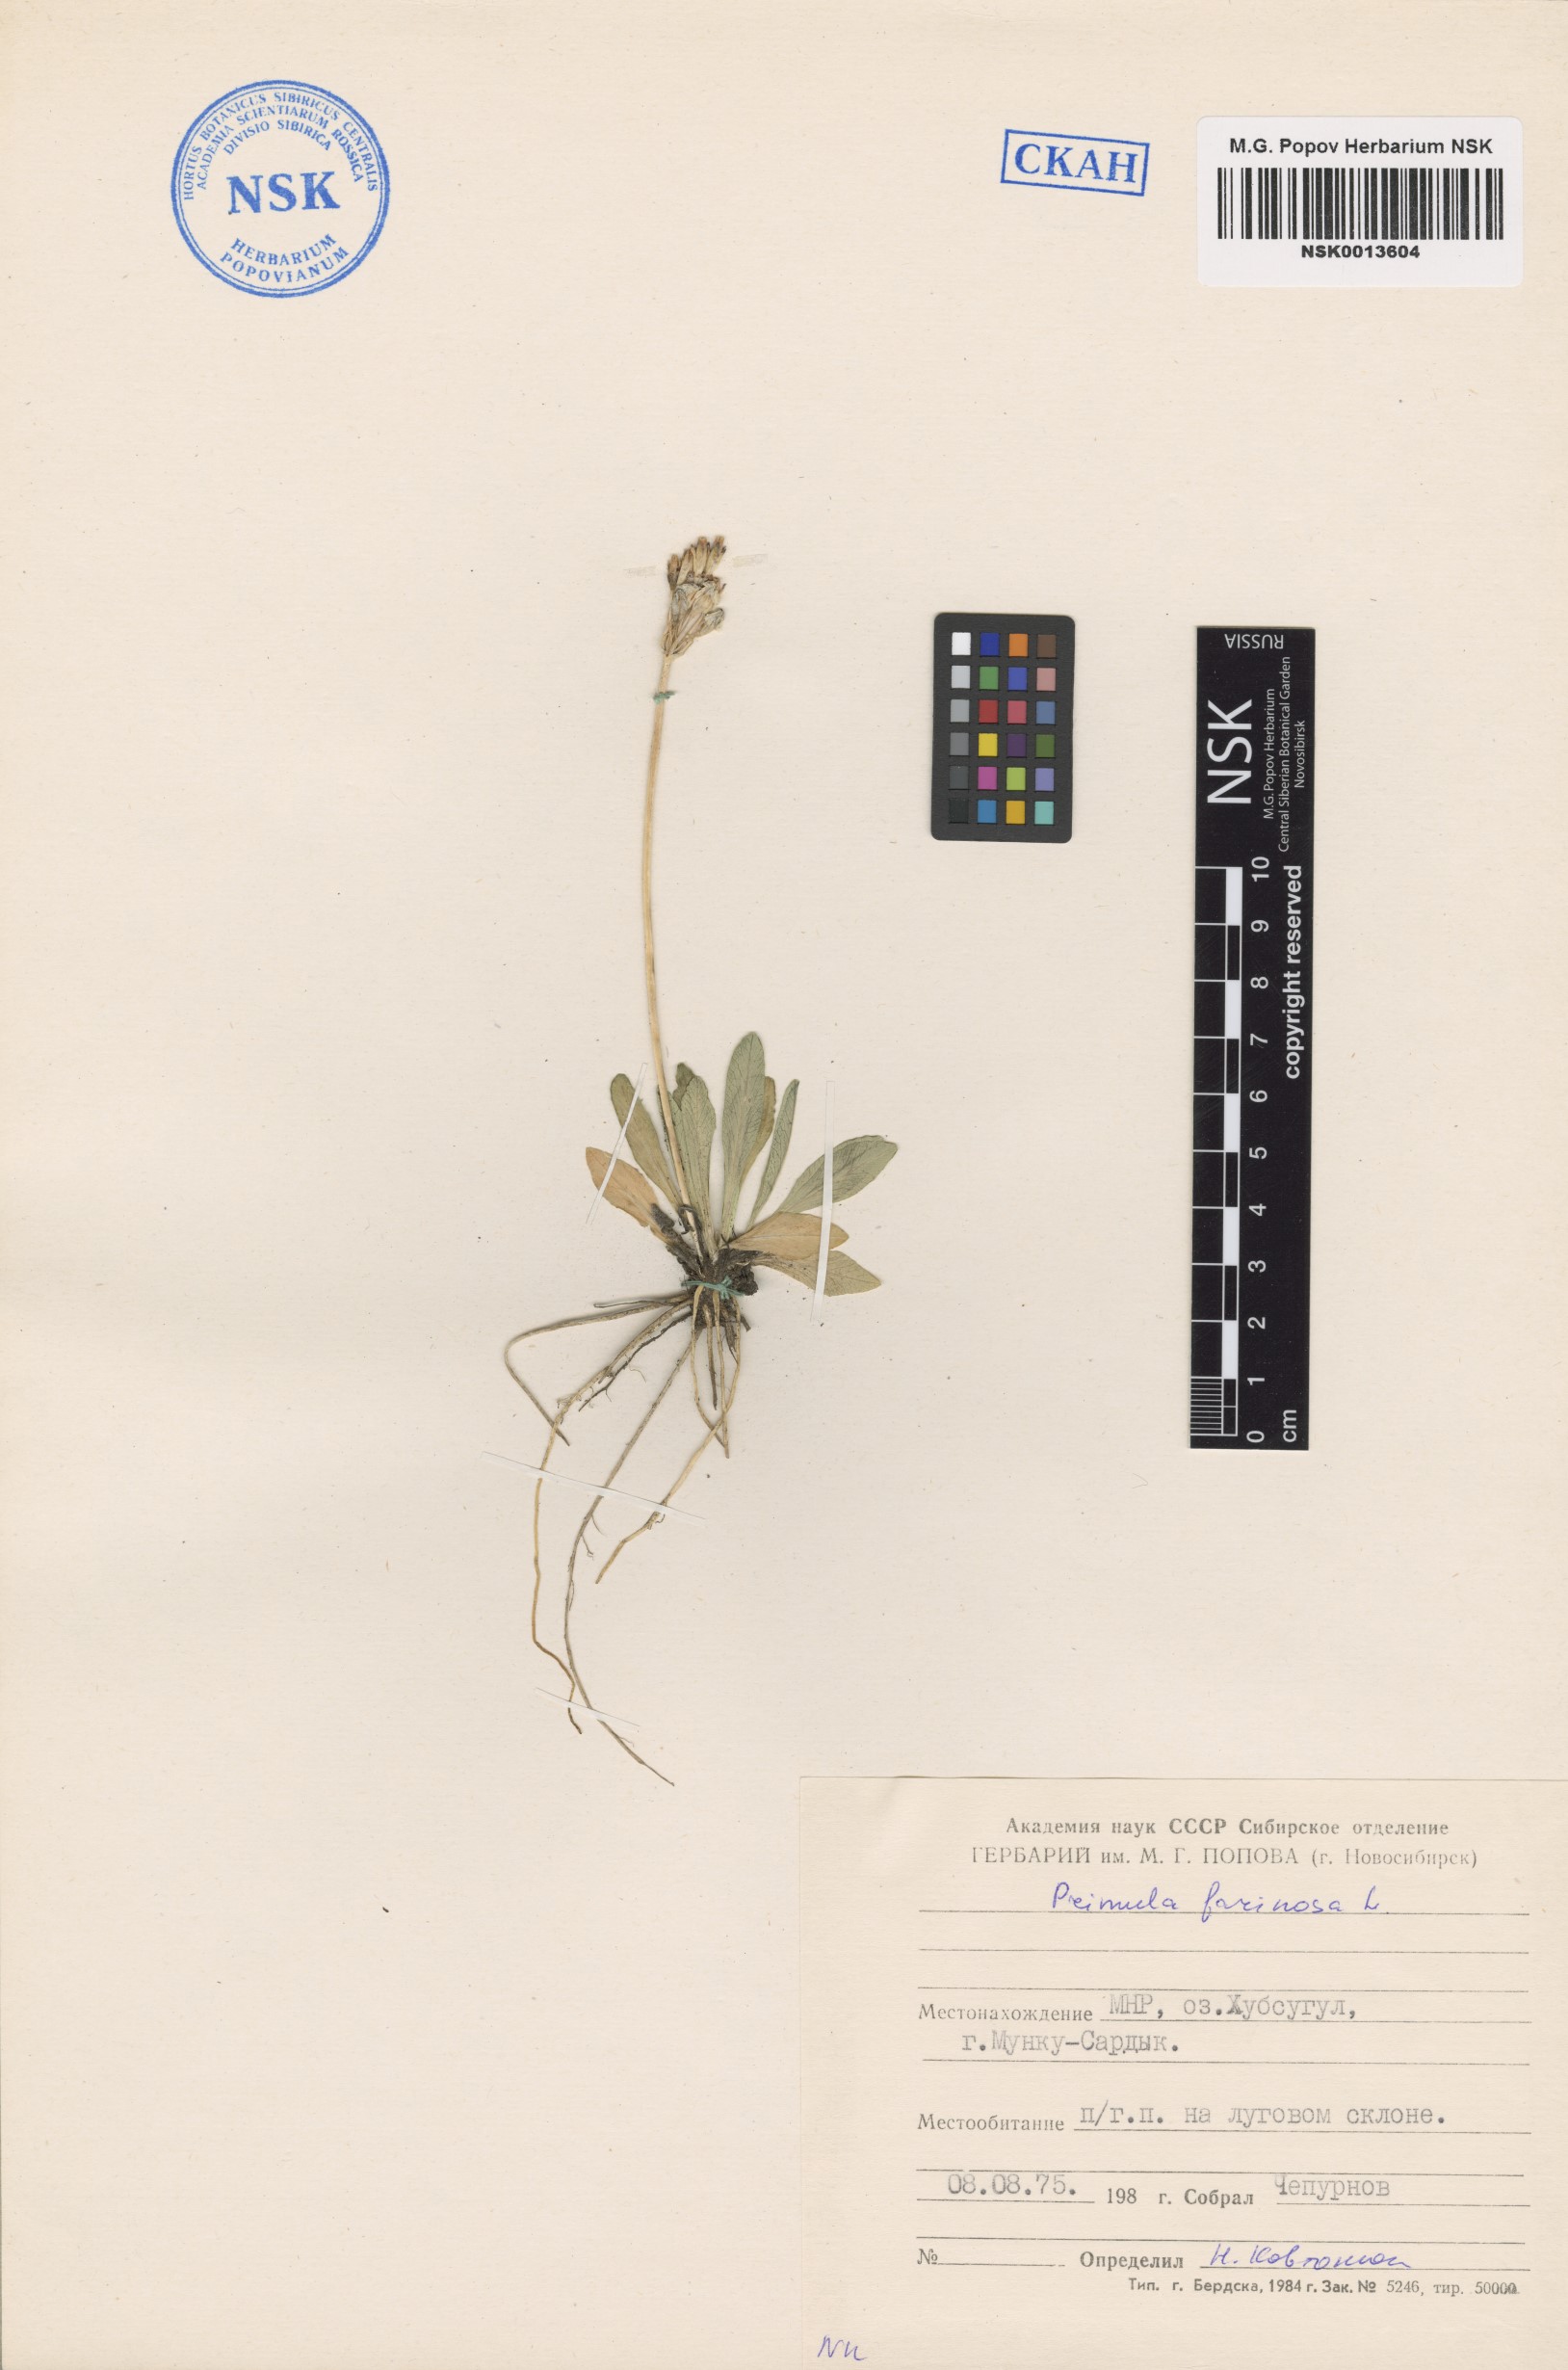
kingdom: Plantae
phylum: Tracheophyta
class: Magnoliopsida
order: Ericales
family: Primulaceae
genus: Primula
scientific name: Primula farinosa
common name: Bird's-eye primrose
